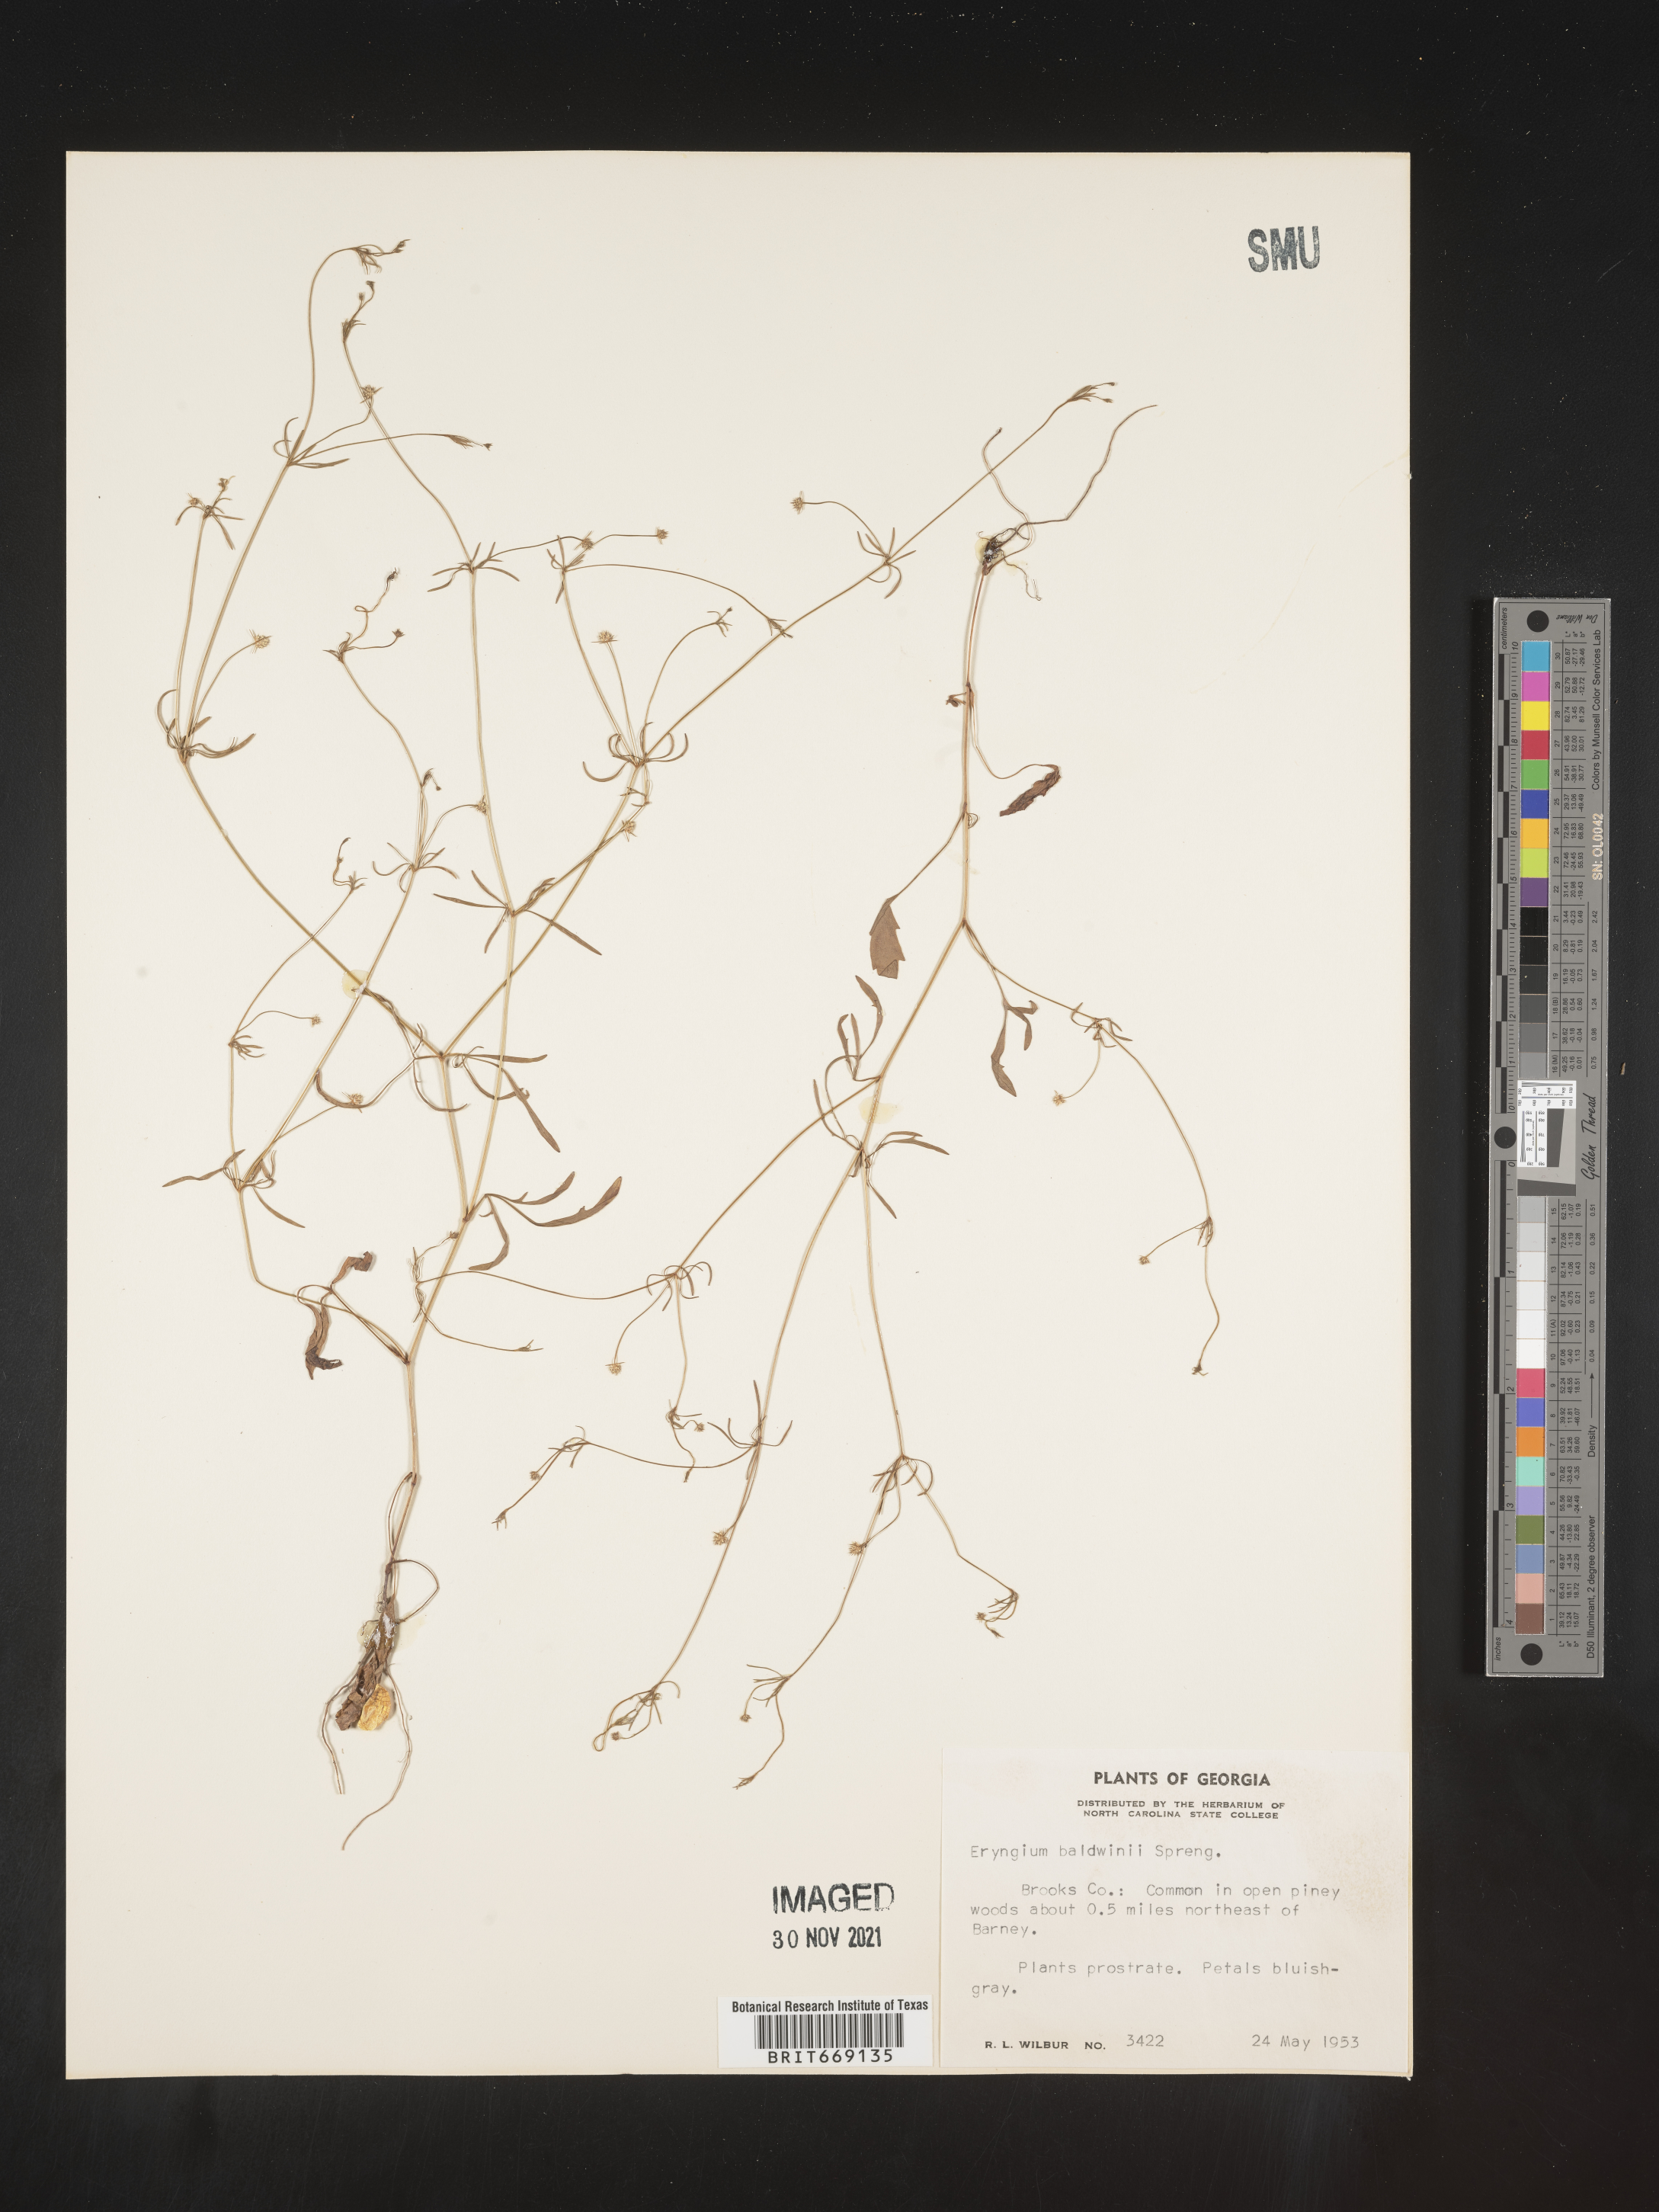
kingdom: Plantae
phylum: Tracheophyta
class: Magnoliopsida
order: Apiales
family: Apiaceae
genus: Eryngium
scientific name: Eryngium baldwinii
